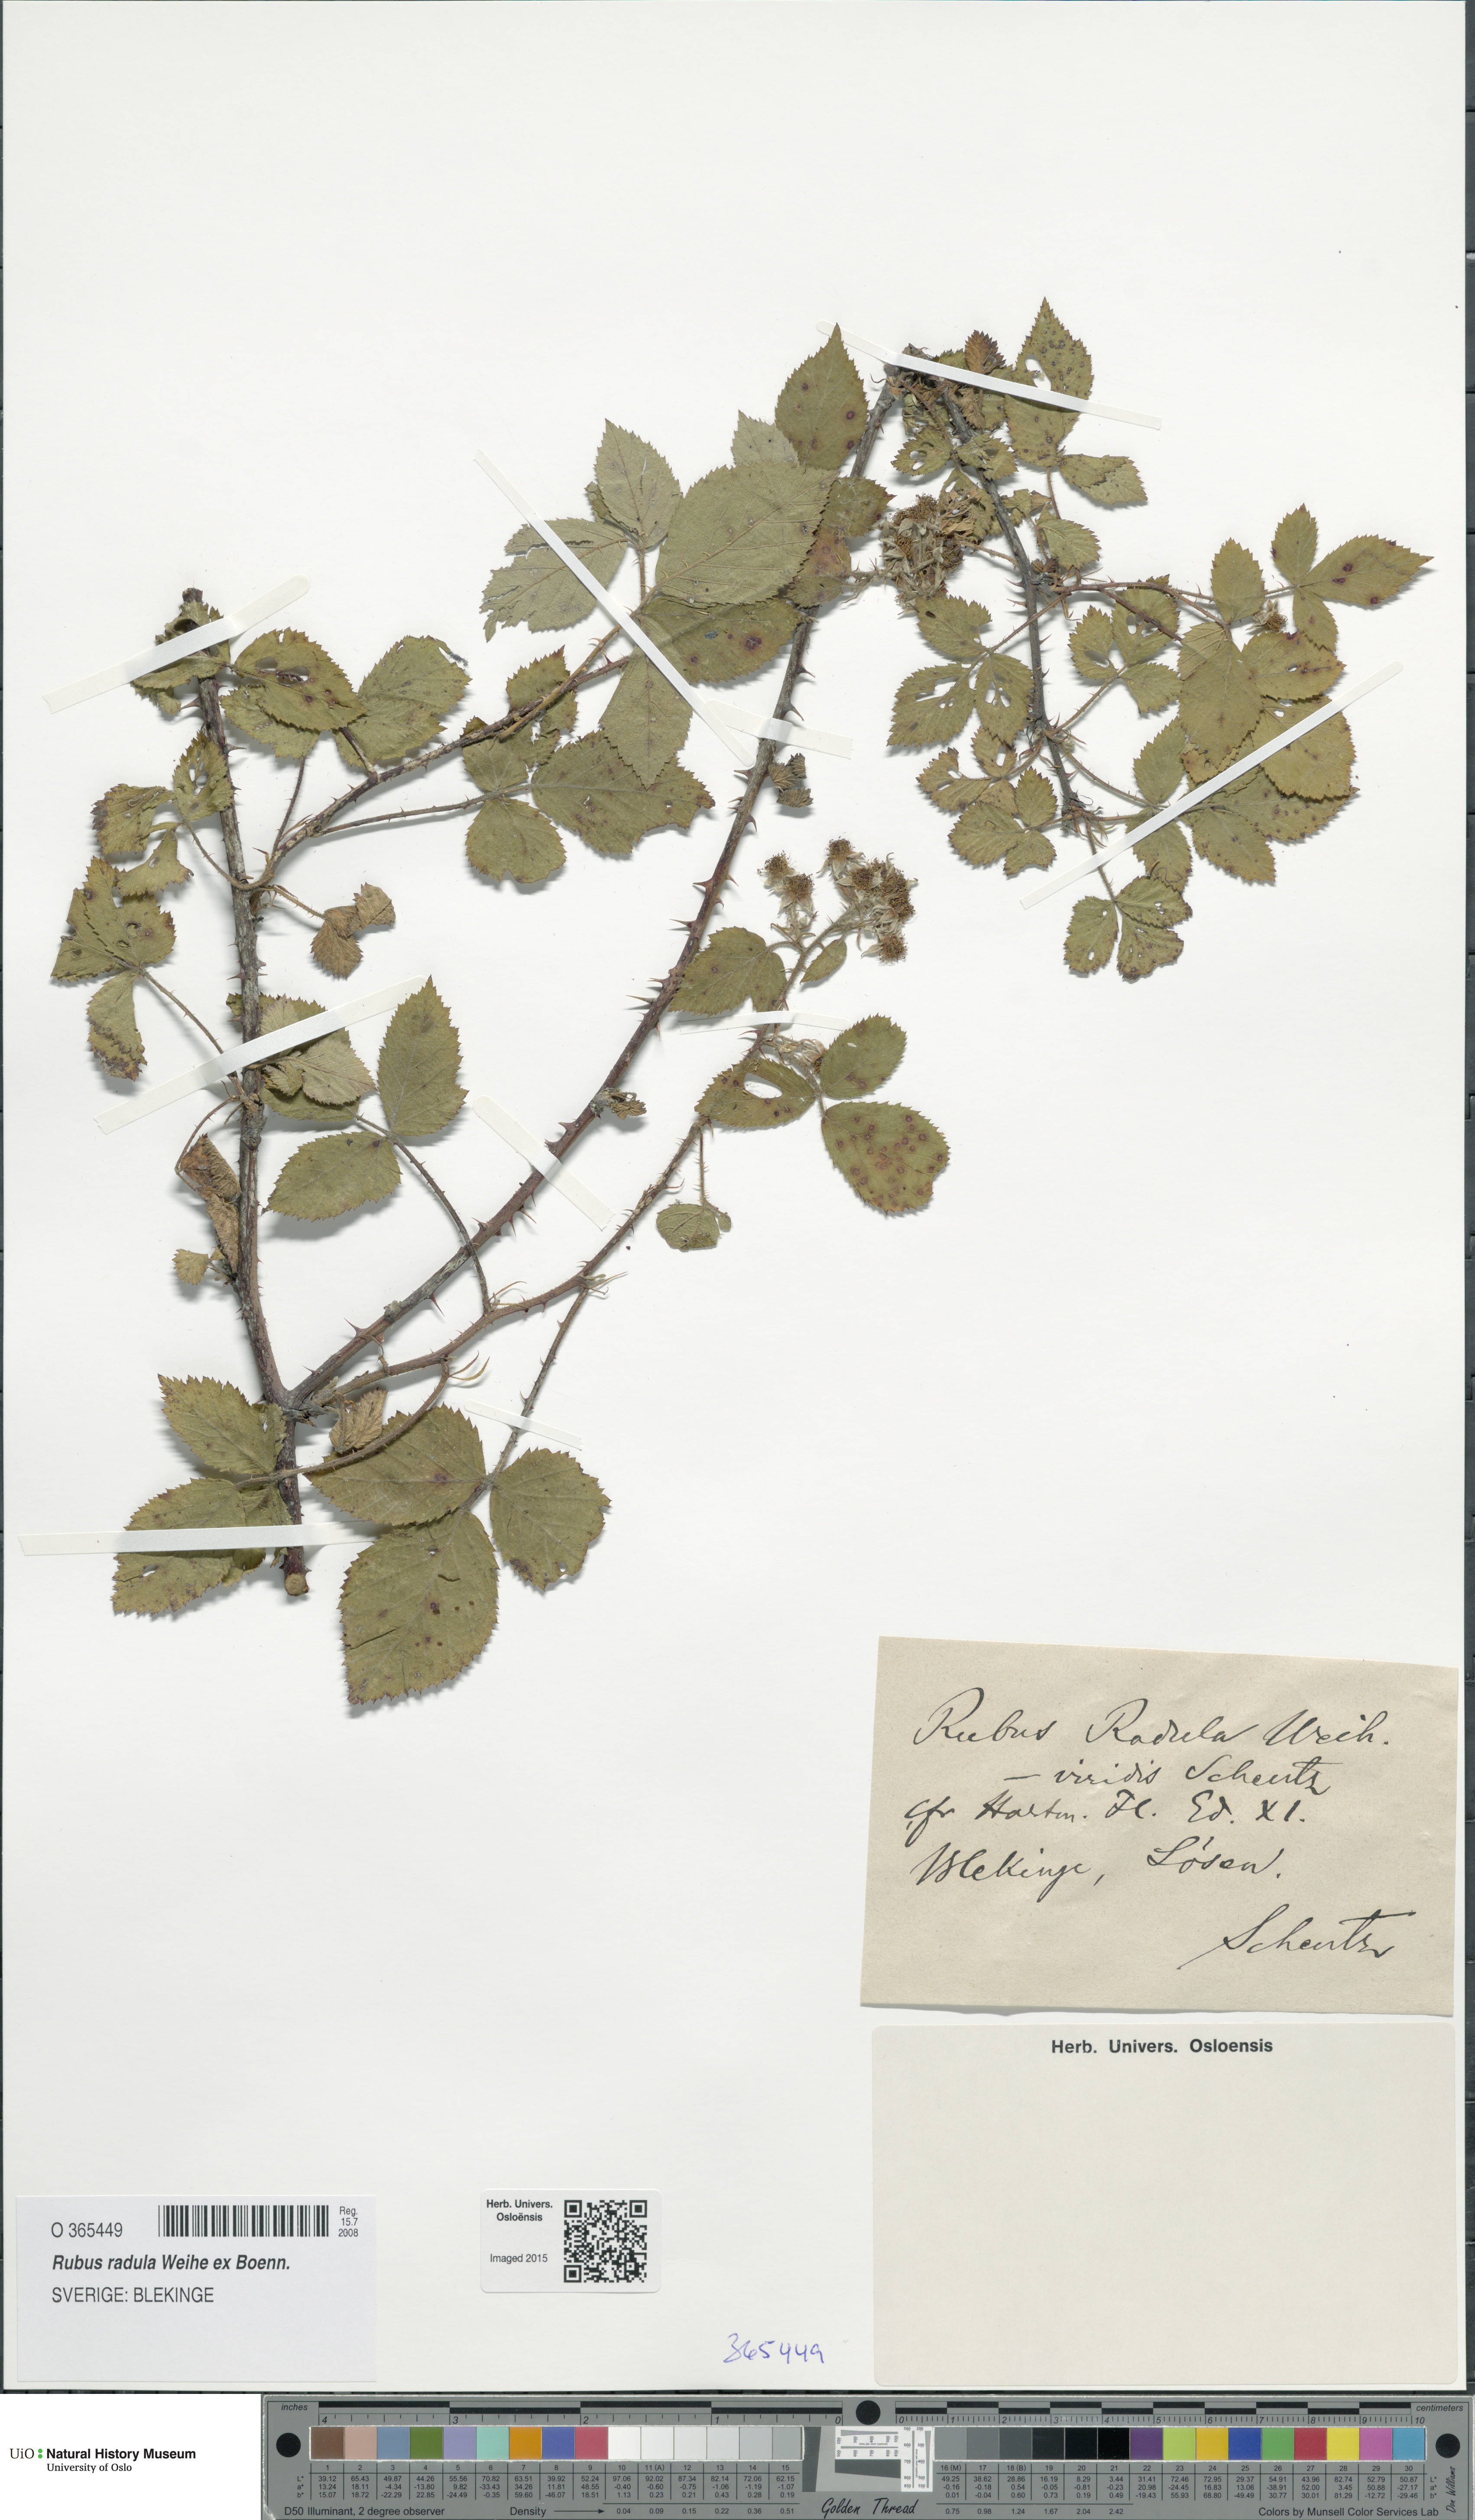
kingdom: Plantae
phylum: Tracheophyta
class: Magnoliopsida
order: Rosales
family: Rosaceae
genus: Rubus
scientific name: Rubus radula
